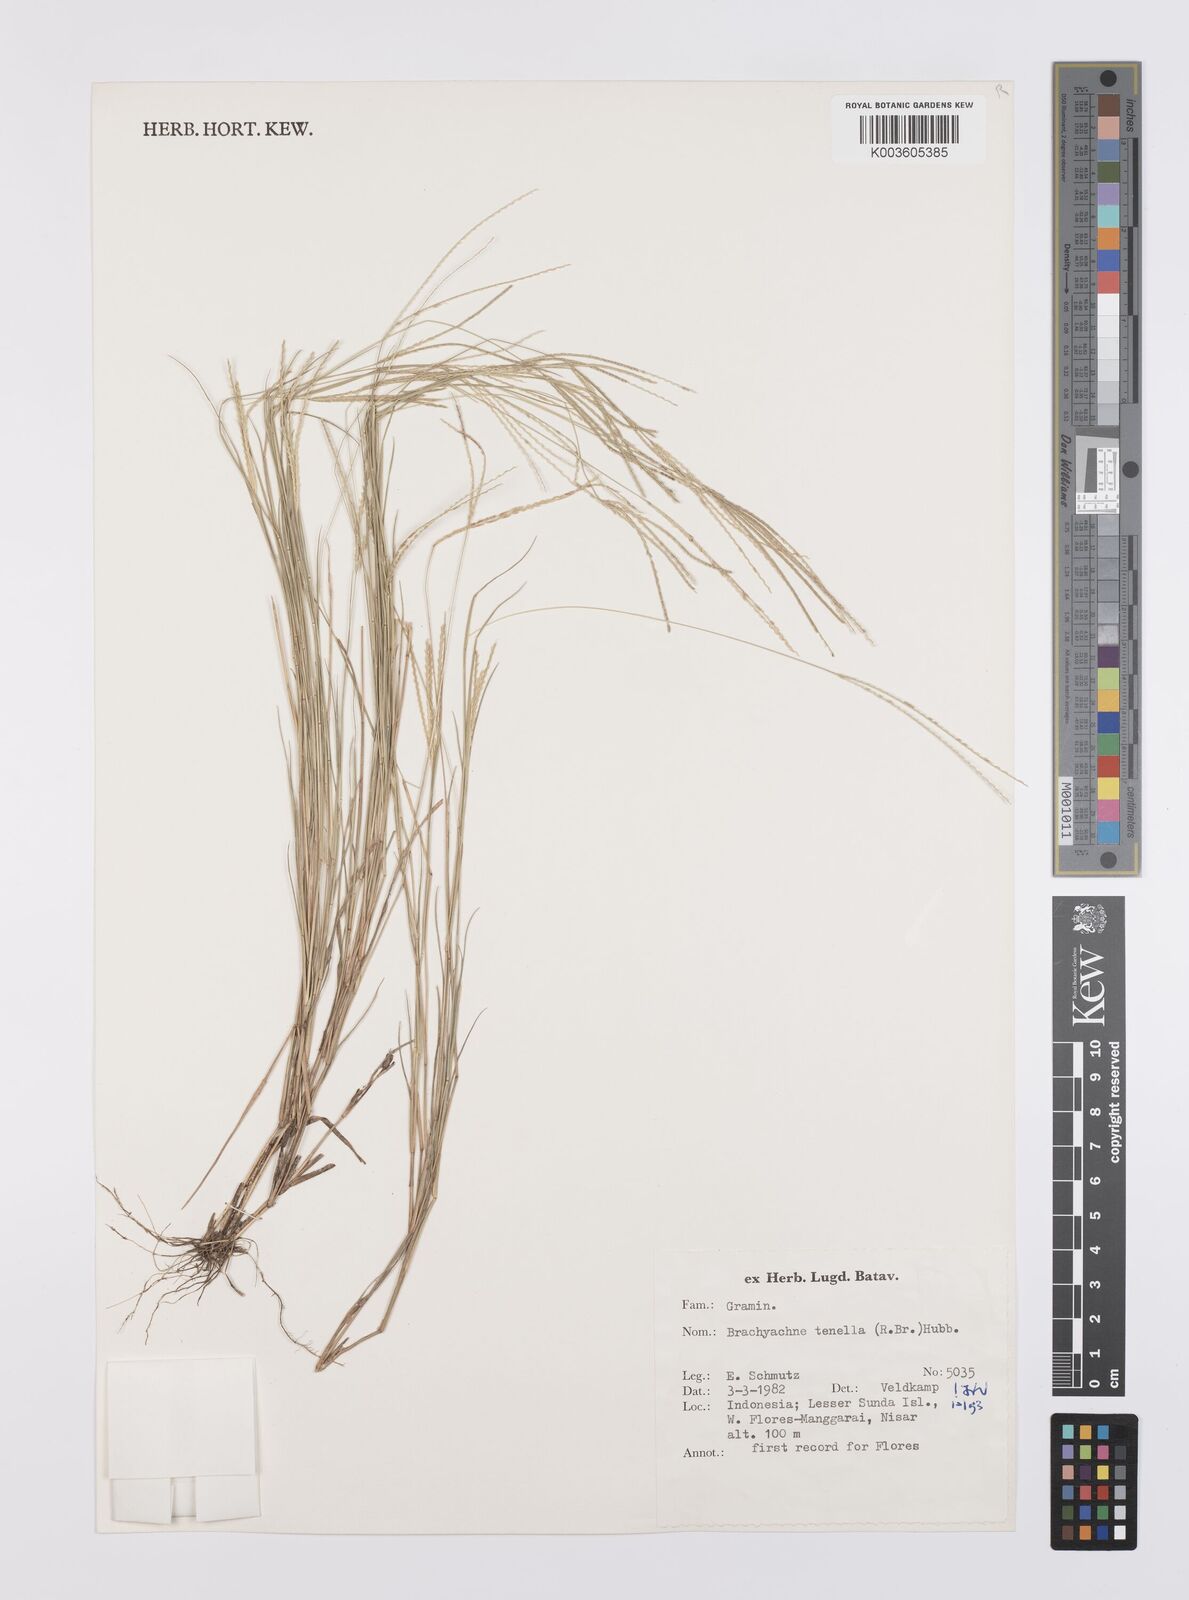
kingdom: Plantae
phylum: Tracheophyta
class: Liliopsida
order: Poales
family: Poaceae
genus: Cynodon
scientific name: Cynodon tenellus
